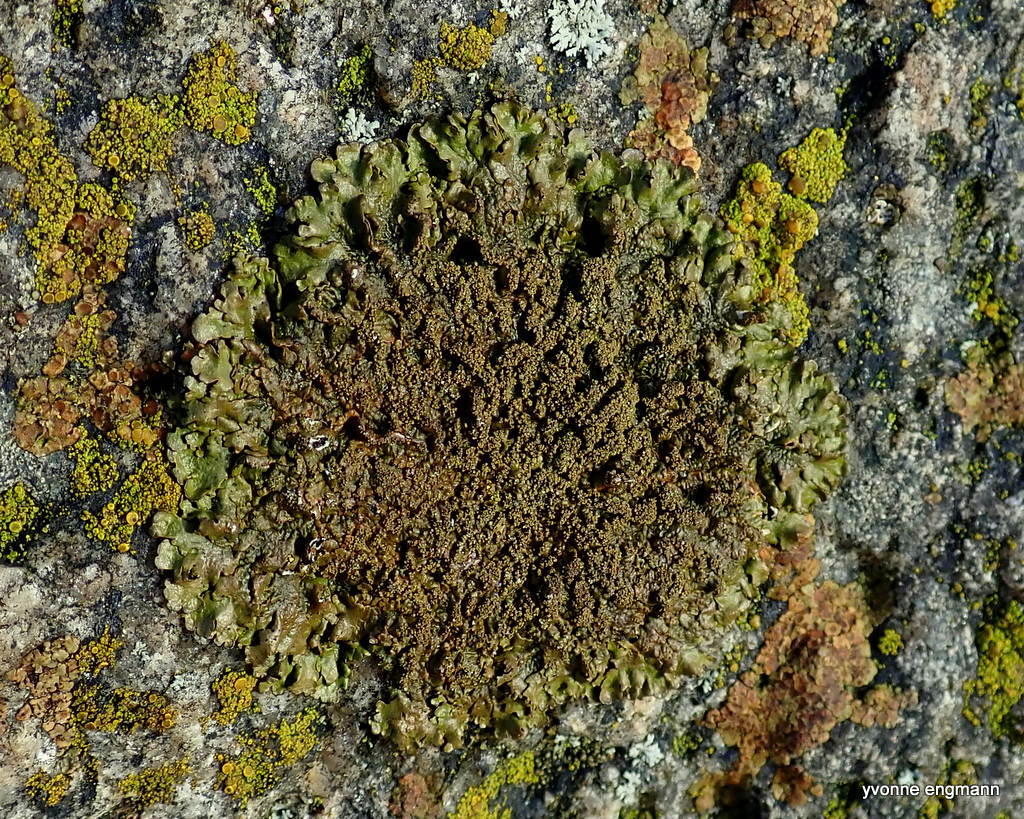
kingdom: Fungi
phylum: Ascomycota
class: Lecanoromycetes
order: Lecanorales
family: Parmeliaceae
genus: Xanthoparmelia
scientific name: Xanthoparmelia verruculifera
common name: småknoppet skållav
